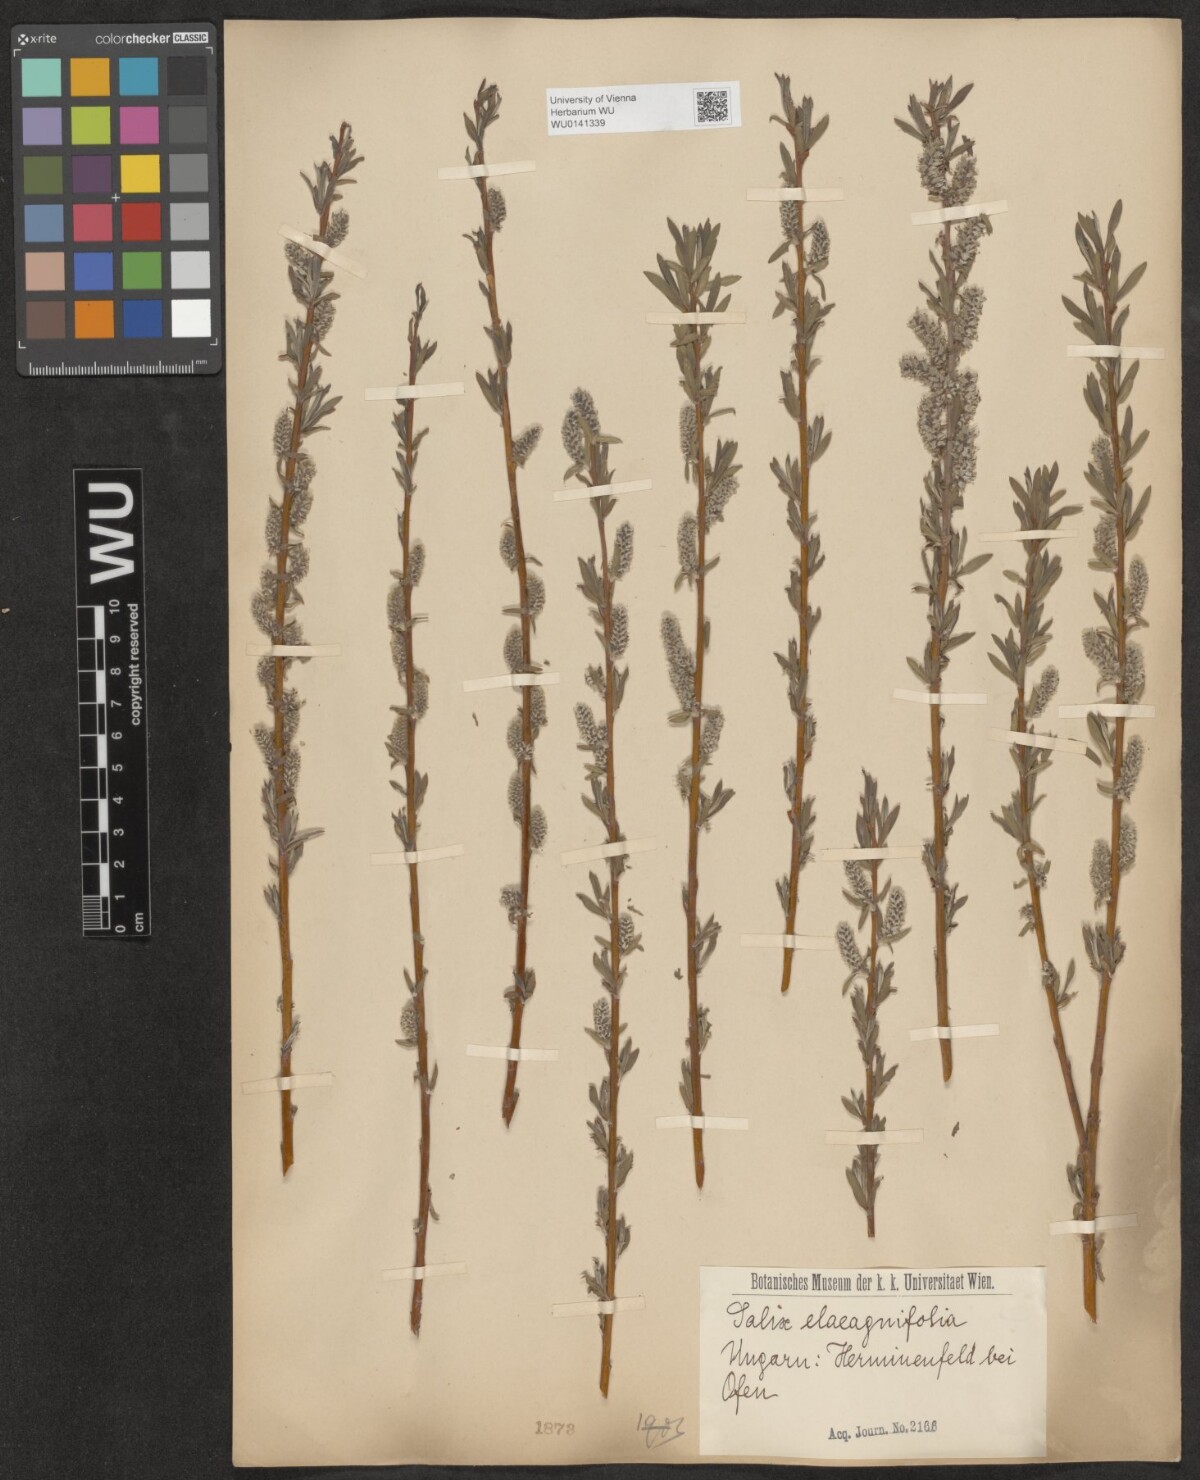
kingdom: Plantae
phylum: Tracheophyta
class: Magnoliopsida
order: Malpighiales
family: Salicaceae
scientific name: Salicaceae
